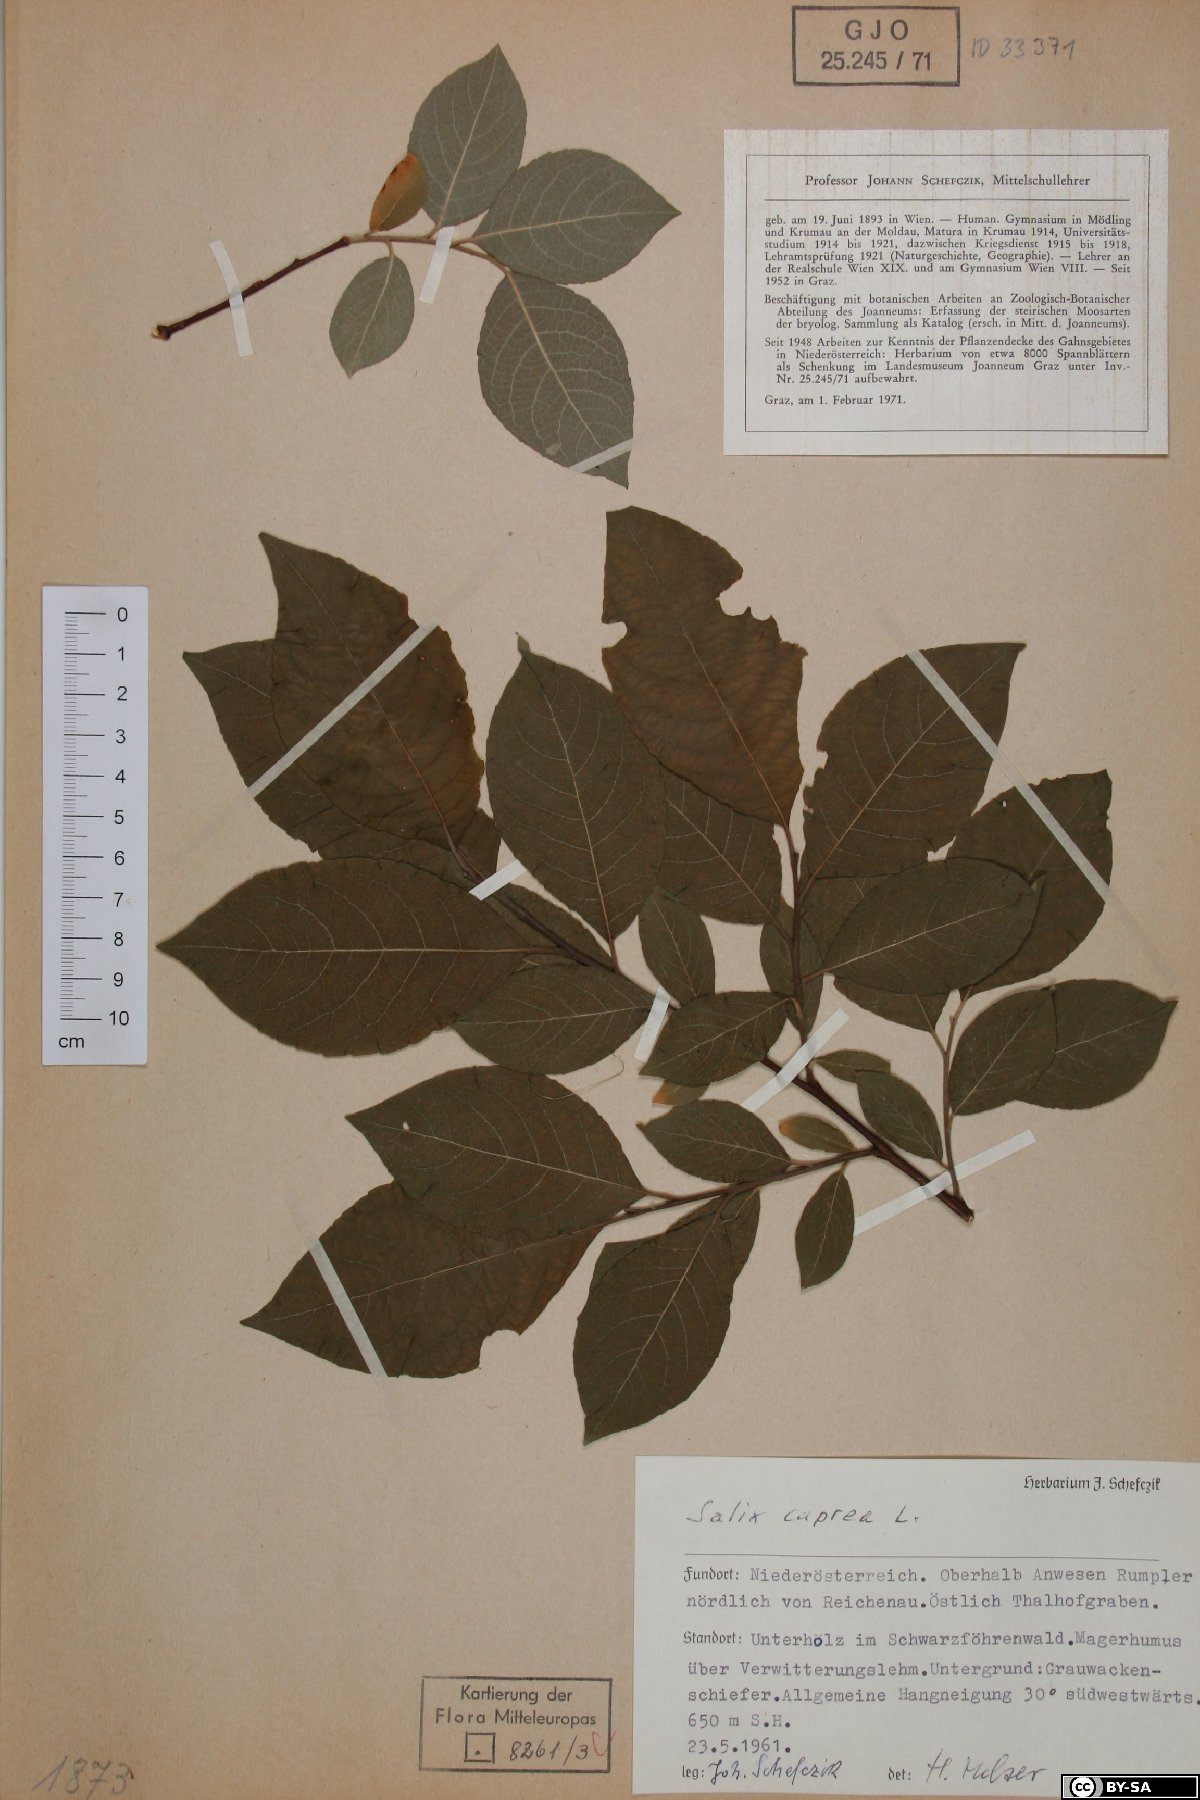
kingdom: Plantae
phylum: Tracheophyta
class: Magnoliopsida
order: Malpighiales
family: Salicaceae
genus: Salix
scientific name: Salix caprea
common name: Goat willow
